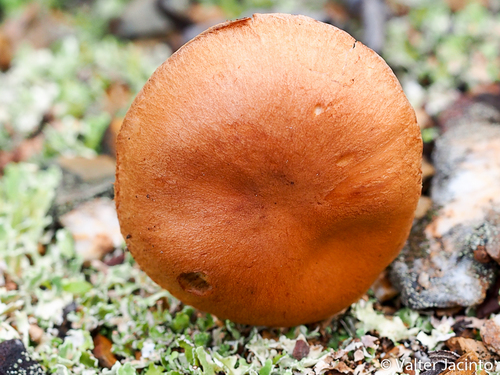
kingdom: Fungi
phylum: Basidiomycota
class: Agaricomycetes
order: Agaricales
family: Cortinariaceae
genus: Cortinarius
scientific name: Cortinarius subcaninus
